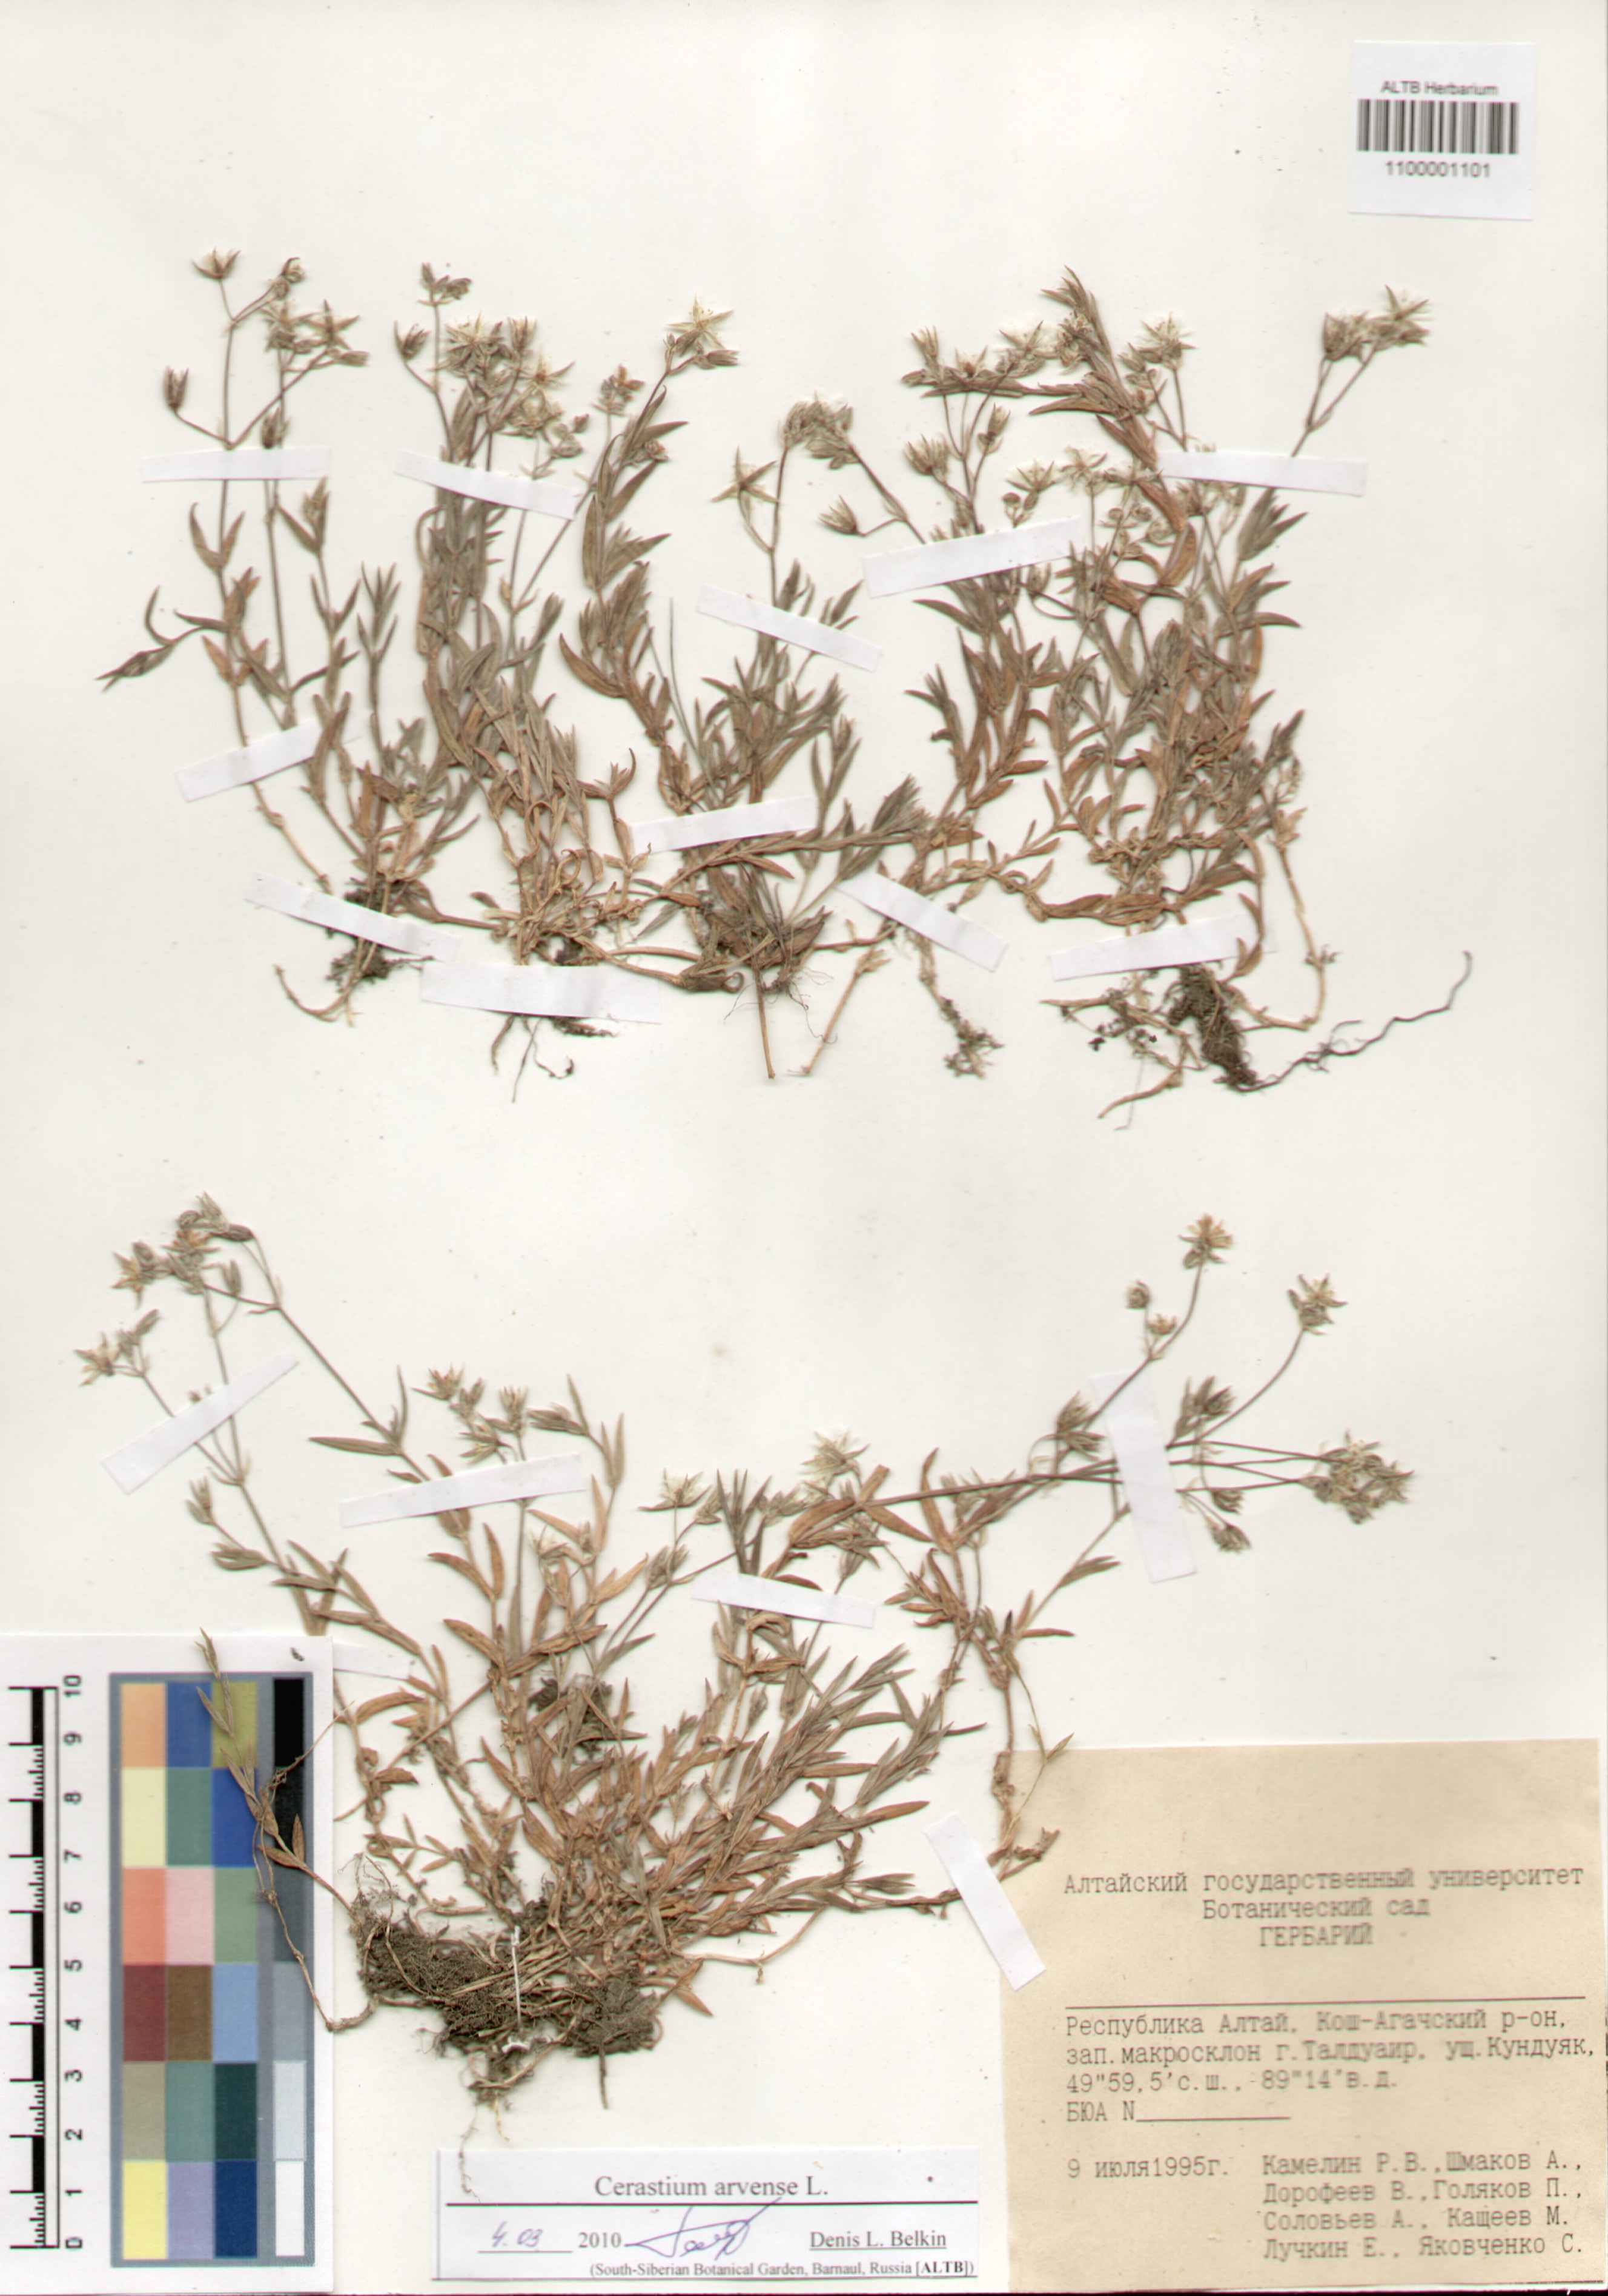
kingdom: Plantae
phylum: Tracheophyta
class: Magnoliopsida
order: Caryophyllales
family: Caryophyllaceae
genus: Cerastium
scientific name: Cerastium arvense
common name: Field mouse-ear
